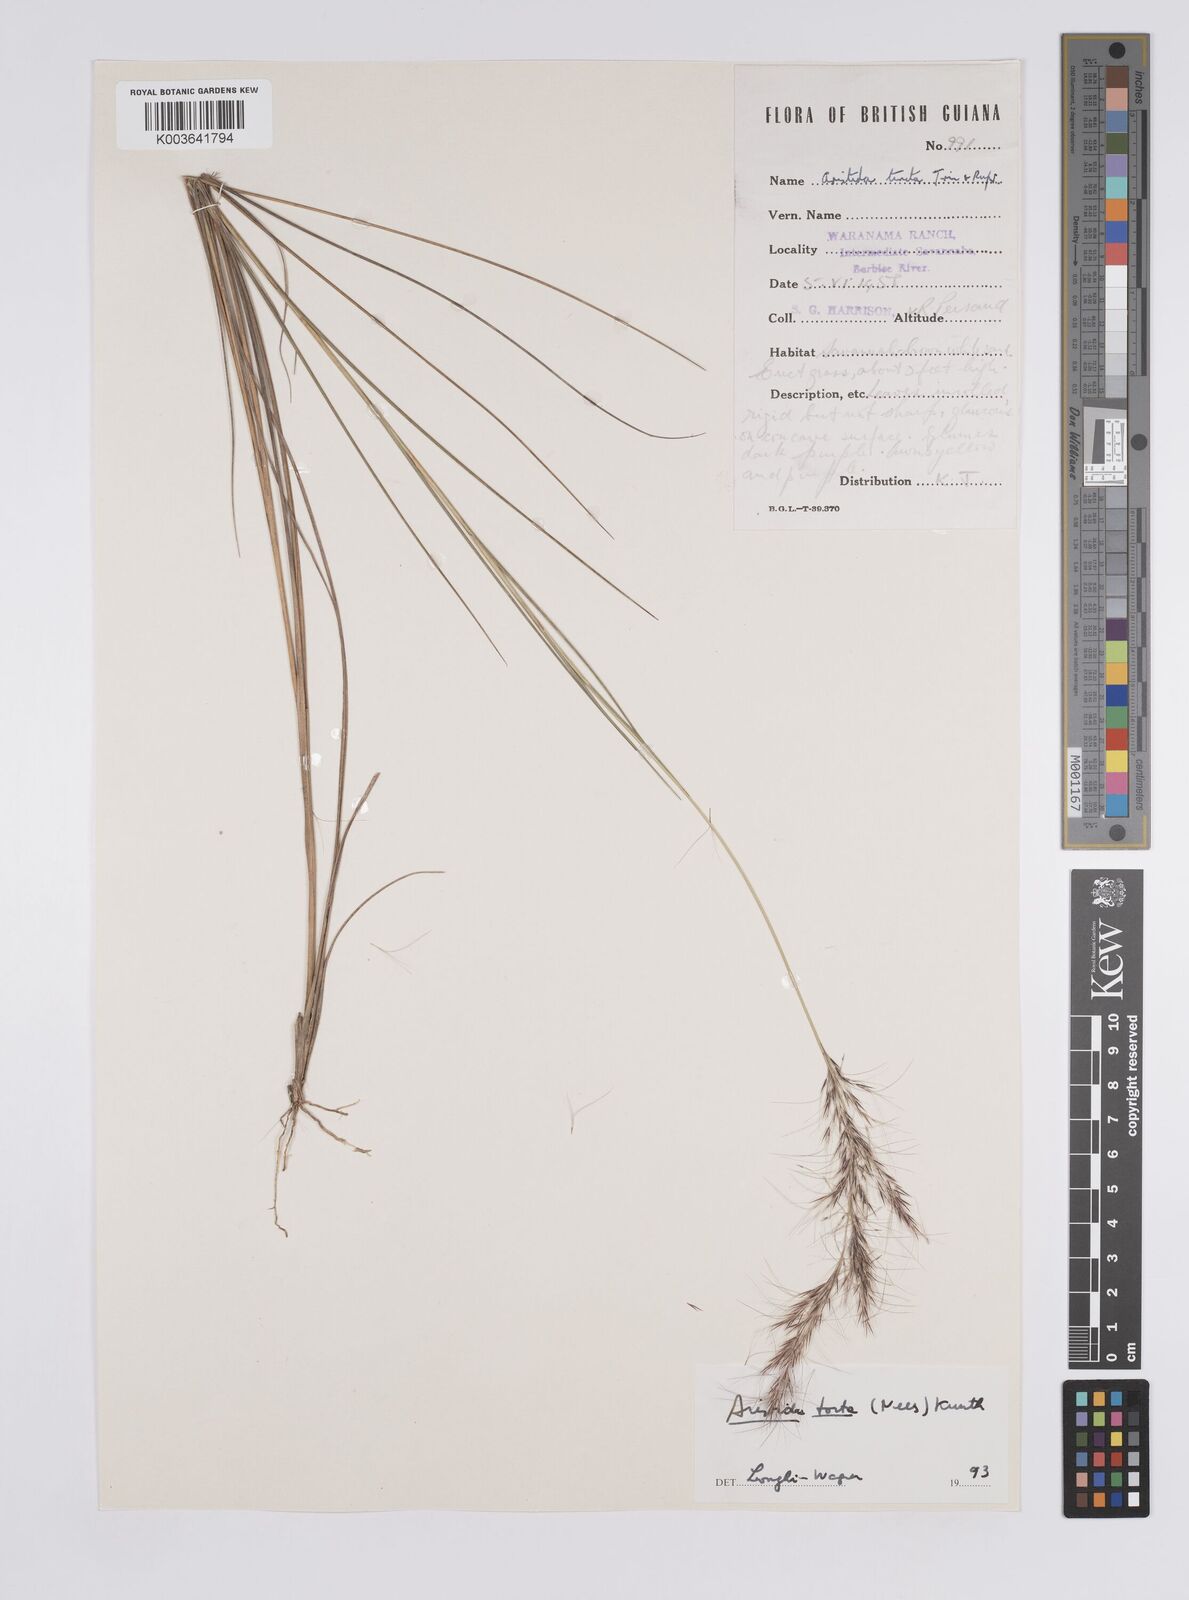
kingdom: Plantae
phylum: Tracheophyta
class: Liliopsida
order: Poales
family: Poaceae
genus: Aristida
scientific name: Aristida torta
